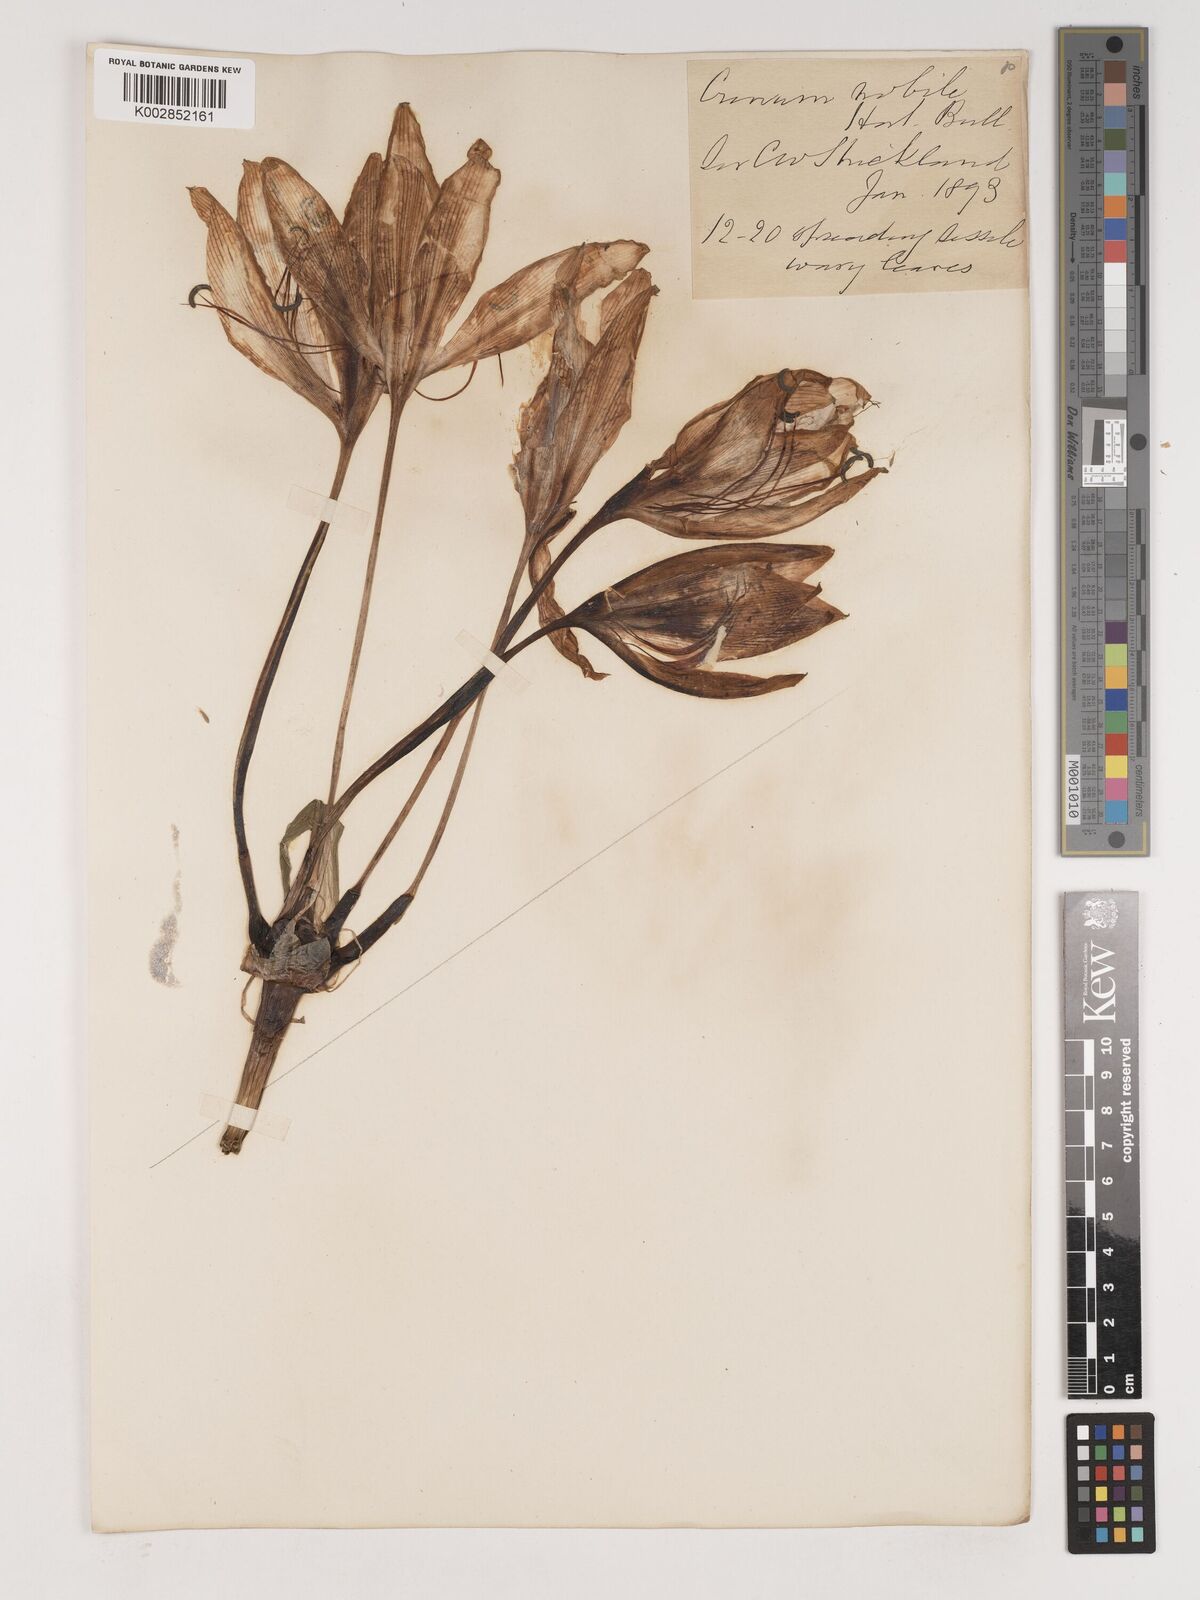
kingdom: Plantae
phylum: Tracheophyta
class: Liliopsida
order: Asparagales
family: Amaryllidaceae
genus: Crinum
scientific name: Crinum jagus
